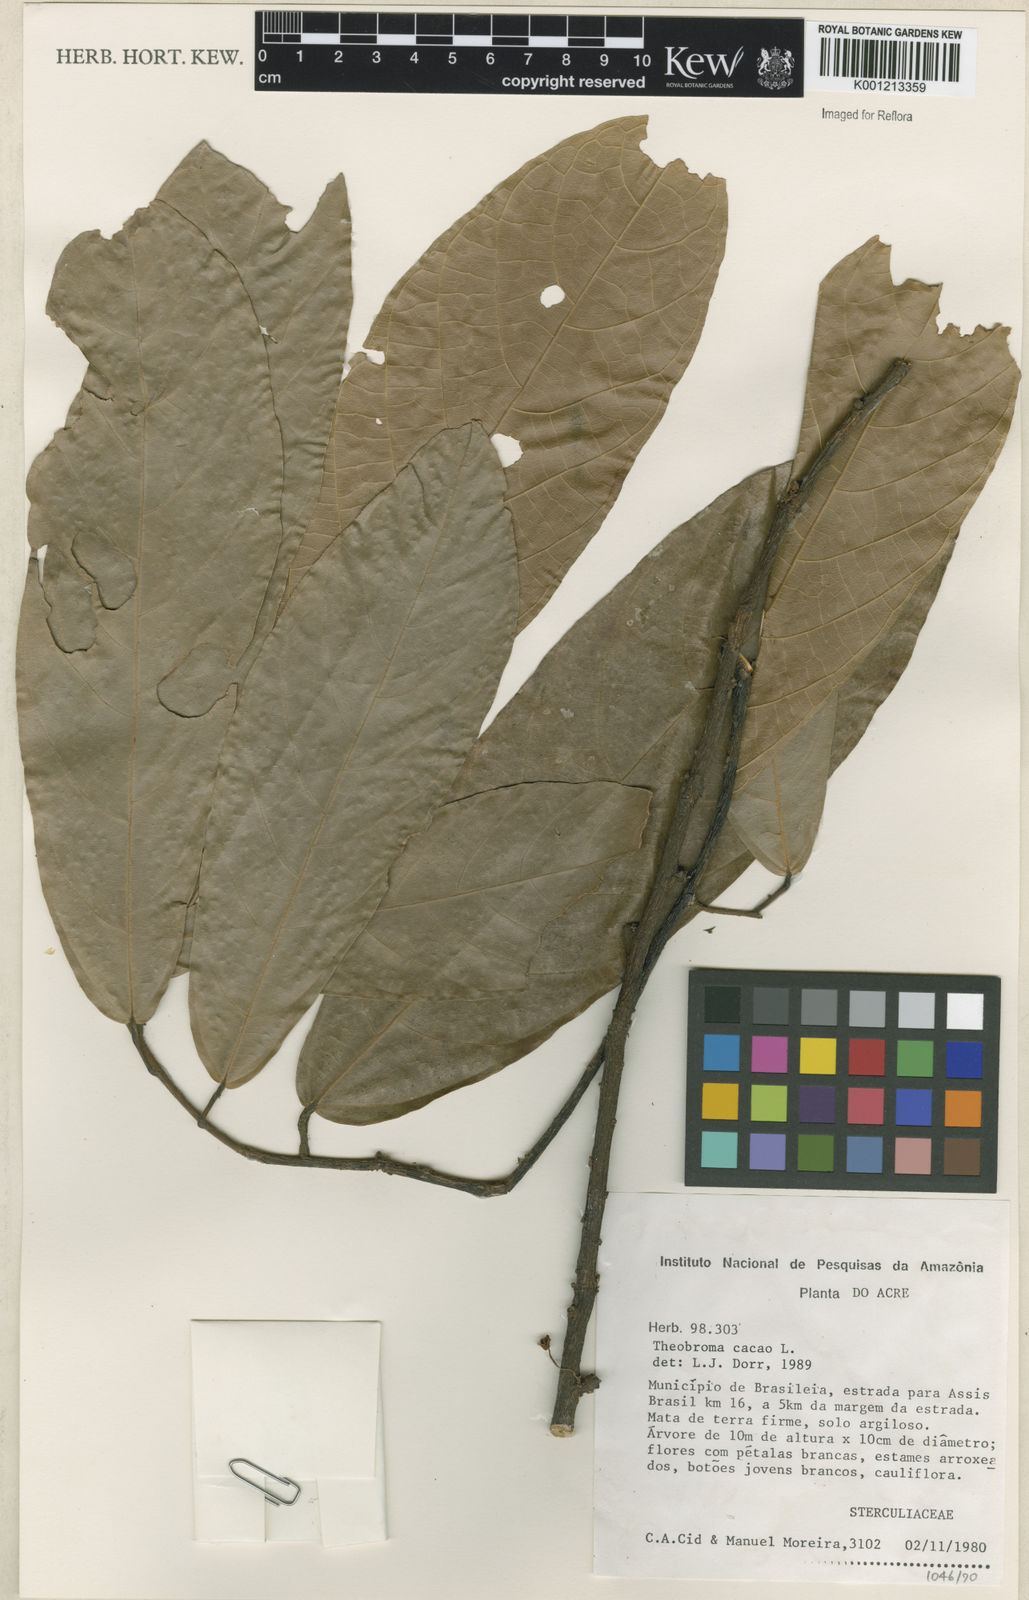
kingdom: Plantae
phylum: Tracheophyta
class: Magnoliopsida
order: Malvales
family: Malvaceae
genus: Theobroma
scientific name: Theobroma cacao
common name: Cocoa
